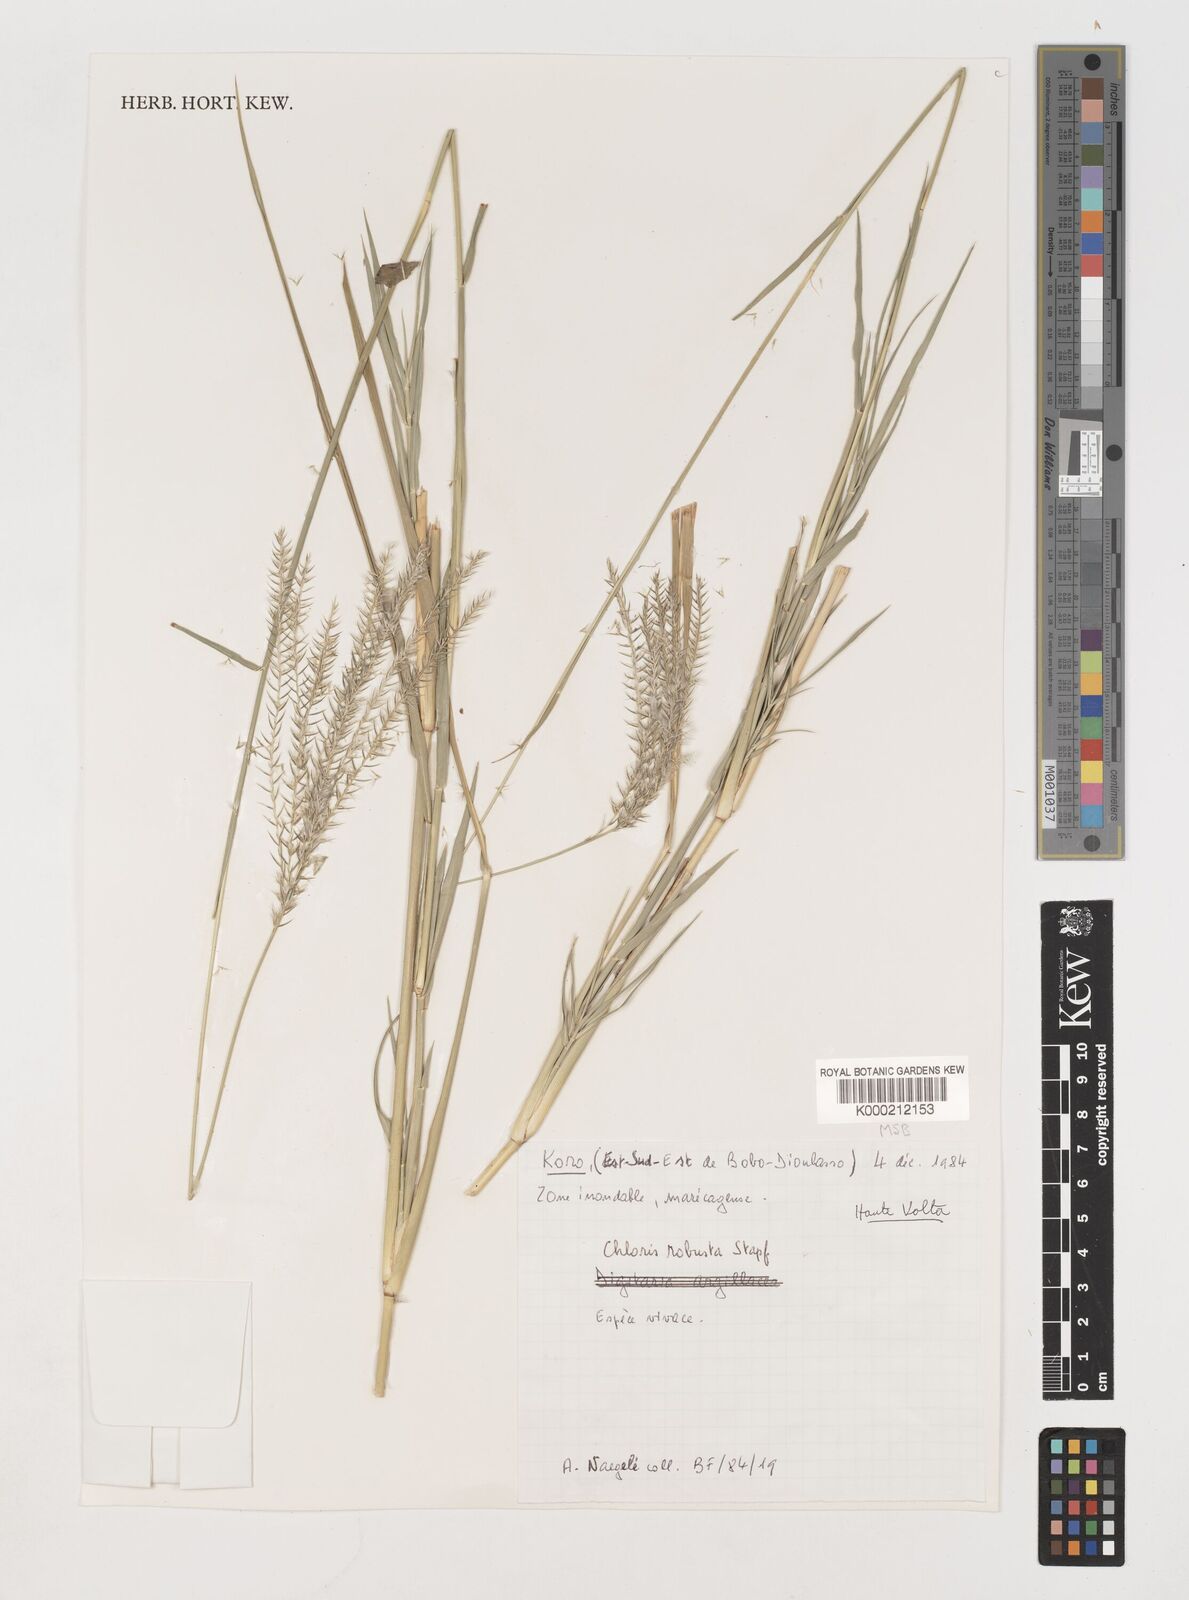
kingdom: Plantae
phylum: Tracheophyta
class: Liliopsida
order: Poales
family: Poaceae
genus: Chloris
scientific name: Chloris robusta
